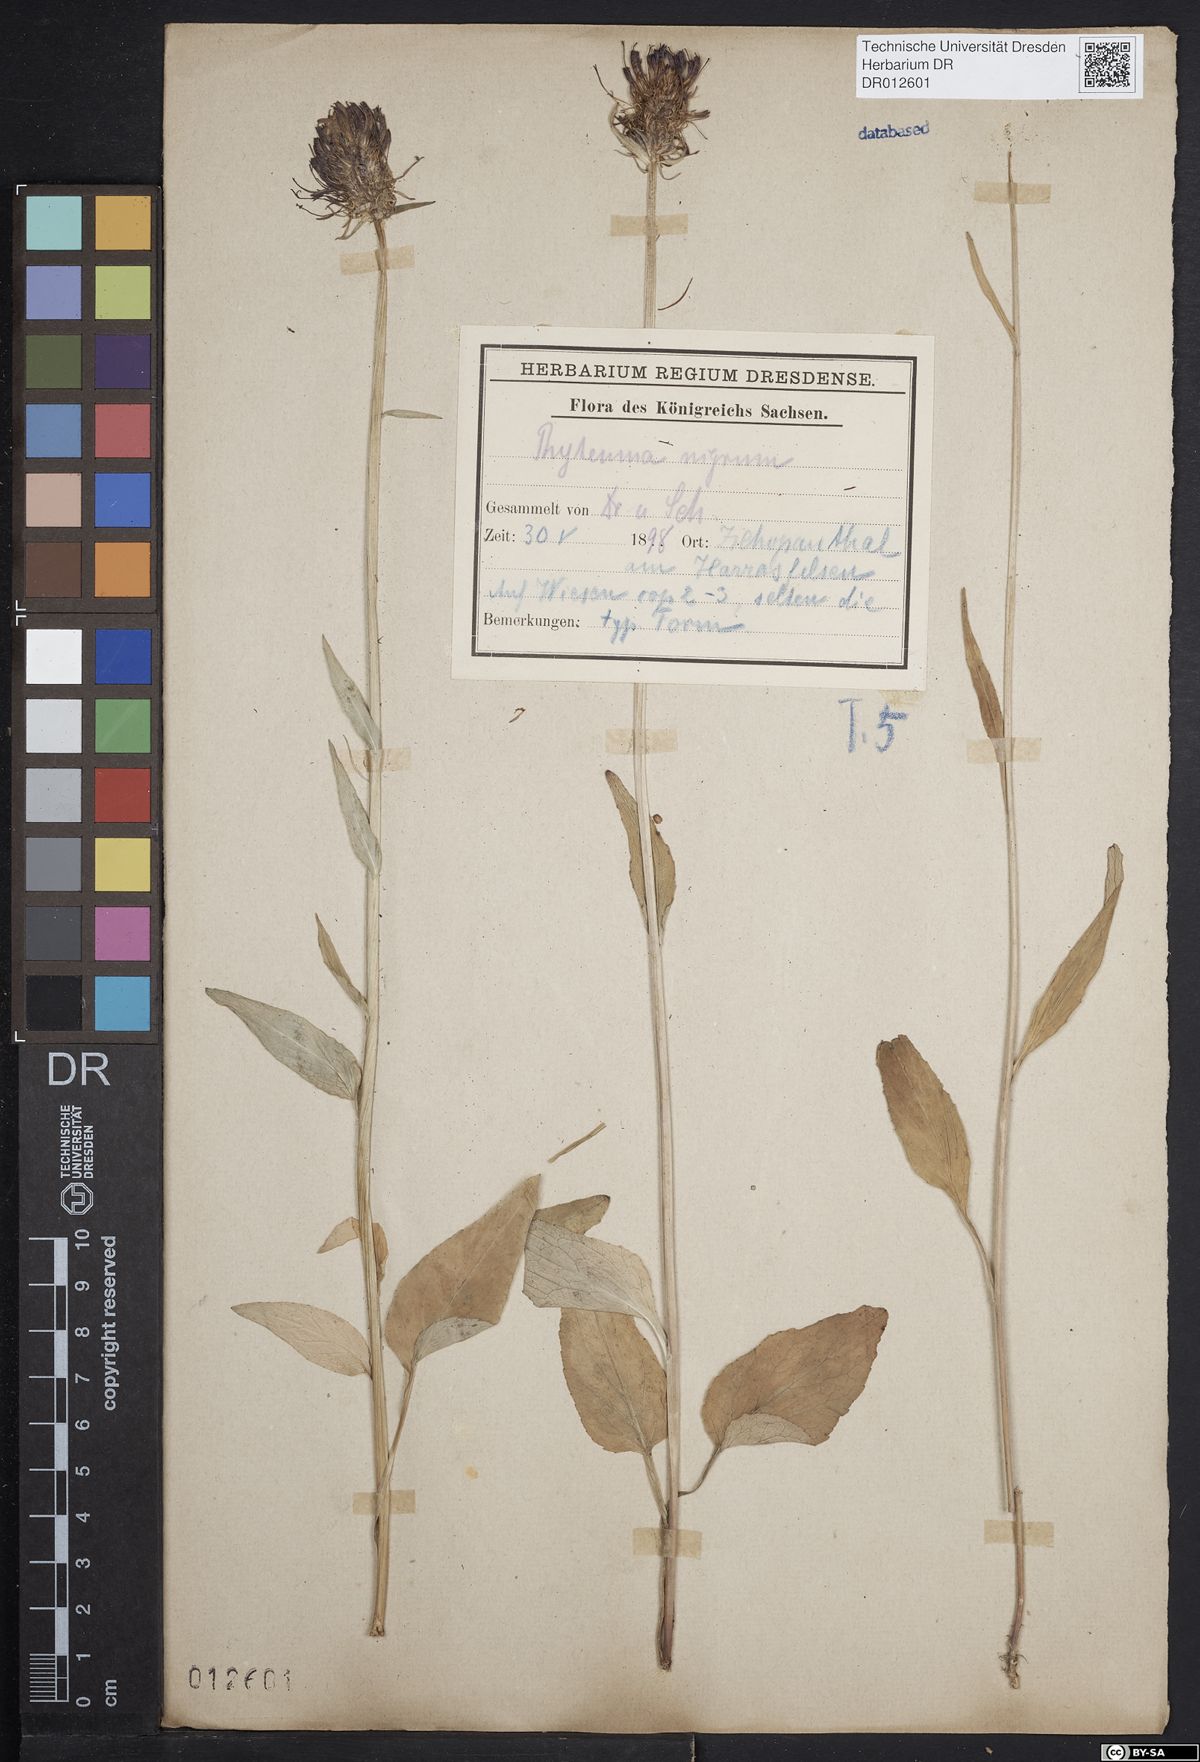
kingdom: Plantae
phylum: Tracheophyta
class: Magnoliopsida
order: Asterales
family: Campanulaceae
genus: Phyteuma
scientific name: Phyteuma nigrum
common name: Black rampion
